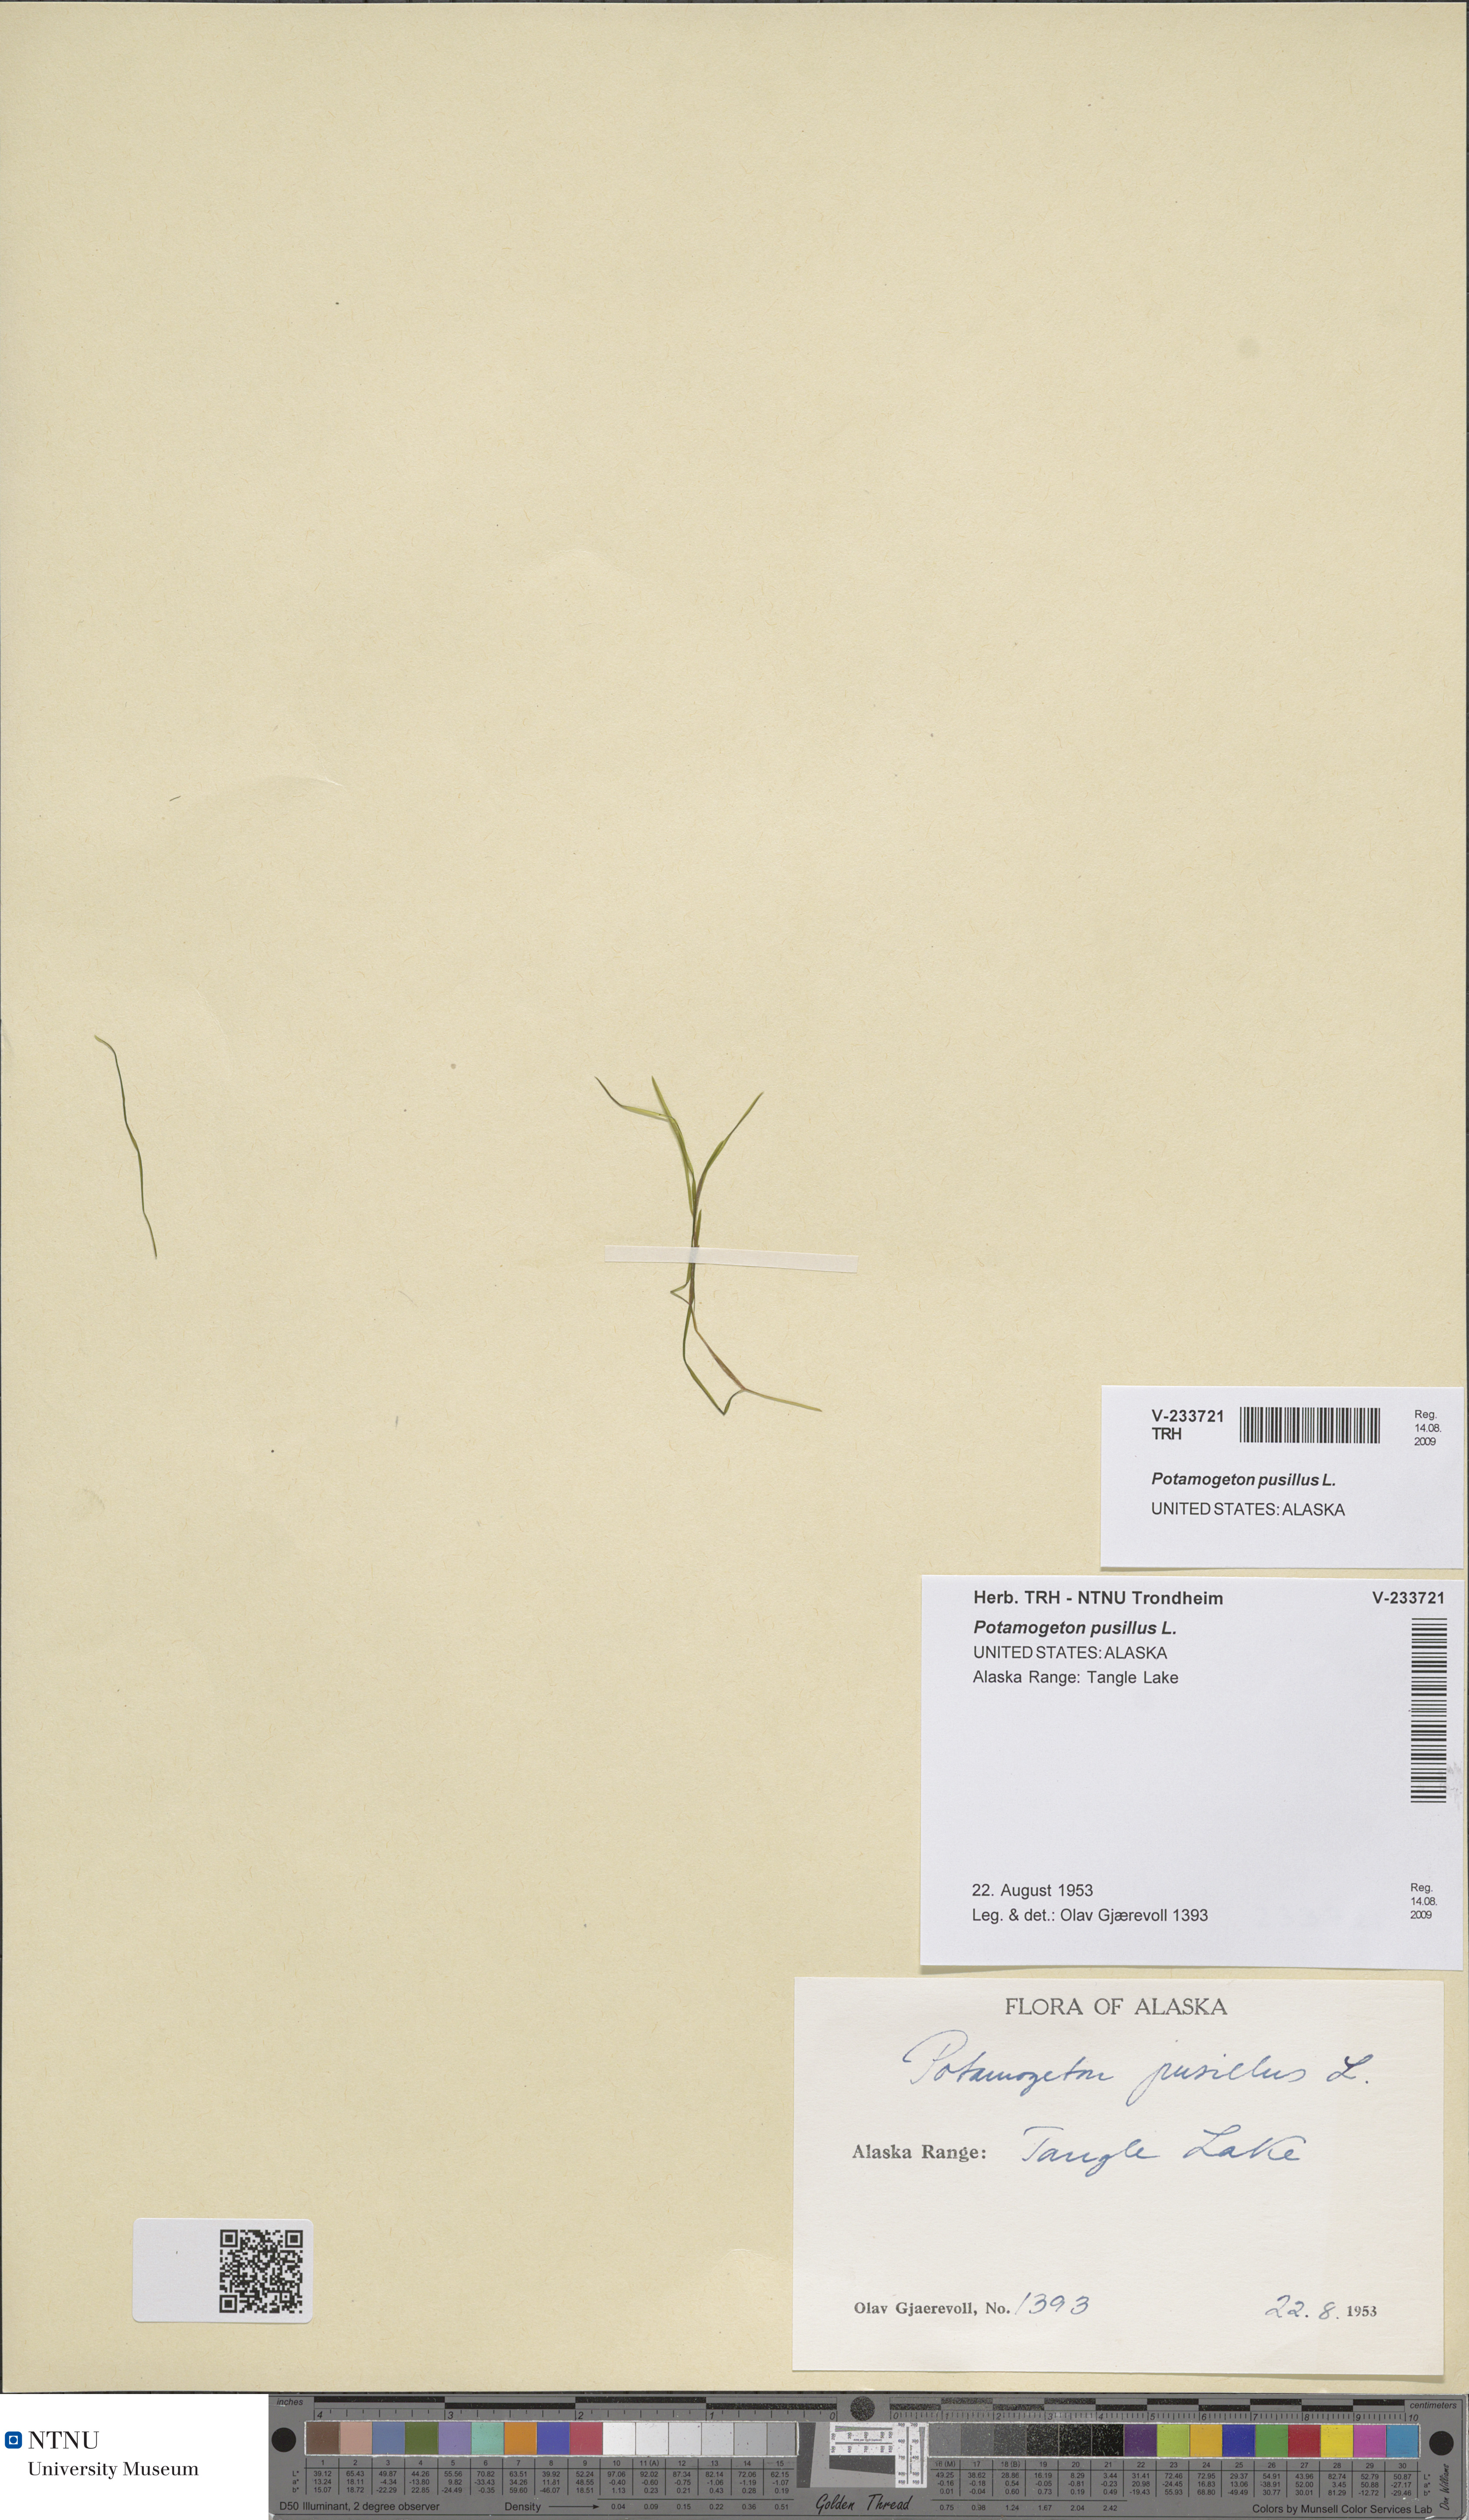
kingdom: Plantae
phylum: Tracheophyta
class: Liliopsida
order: Alismatales
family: Potamogetonaceae
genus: Potamogeton
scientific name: Potamogeton berchtoldii
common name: Small pondweed
